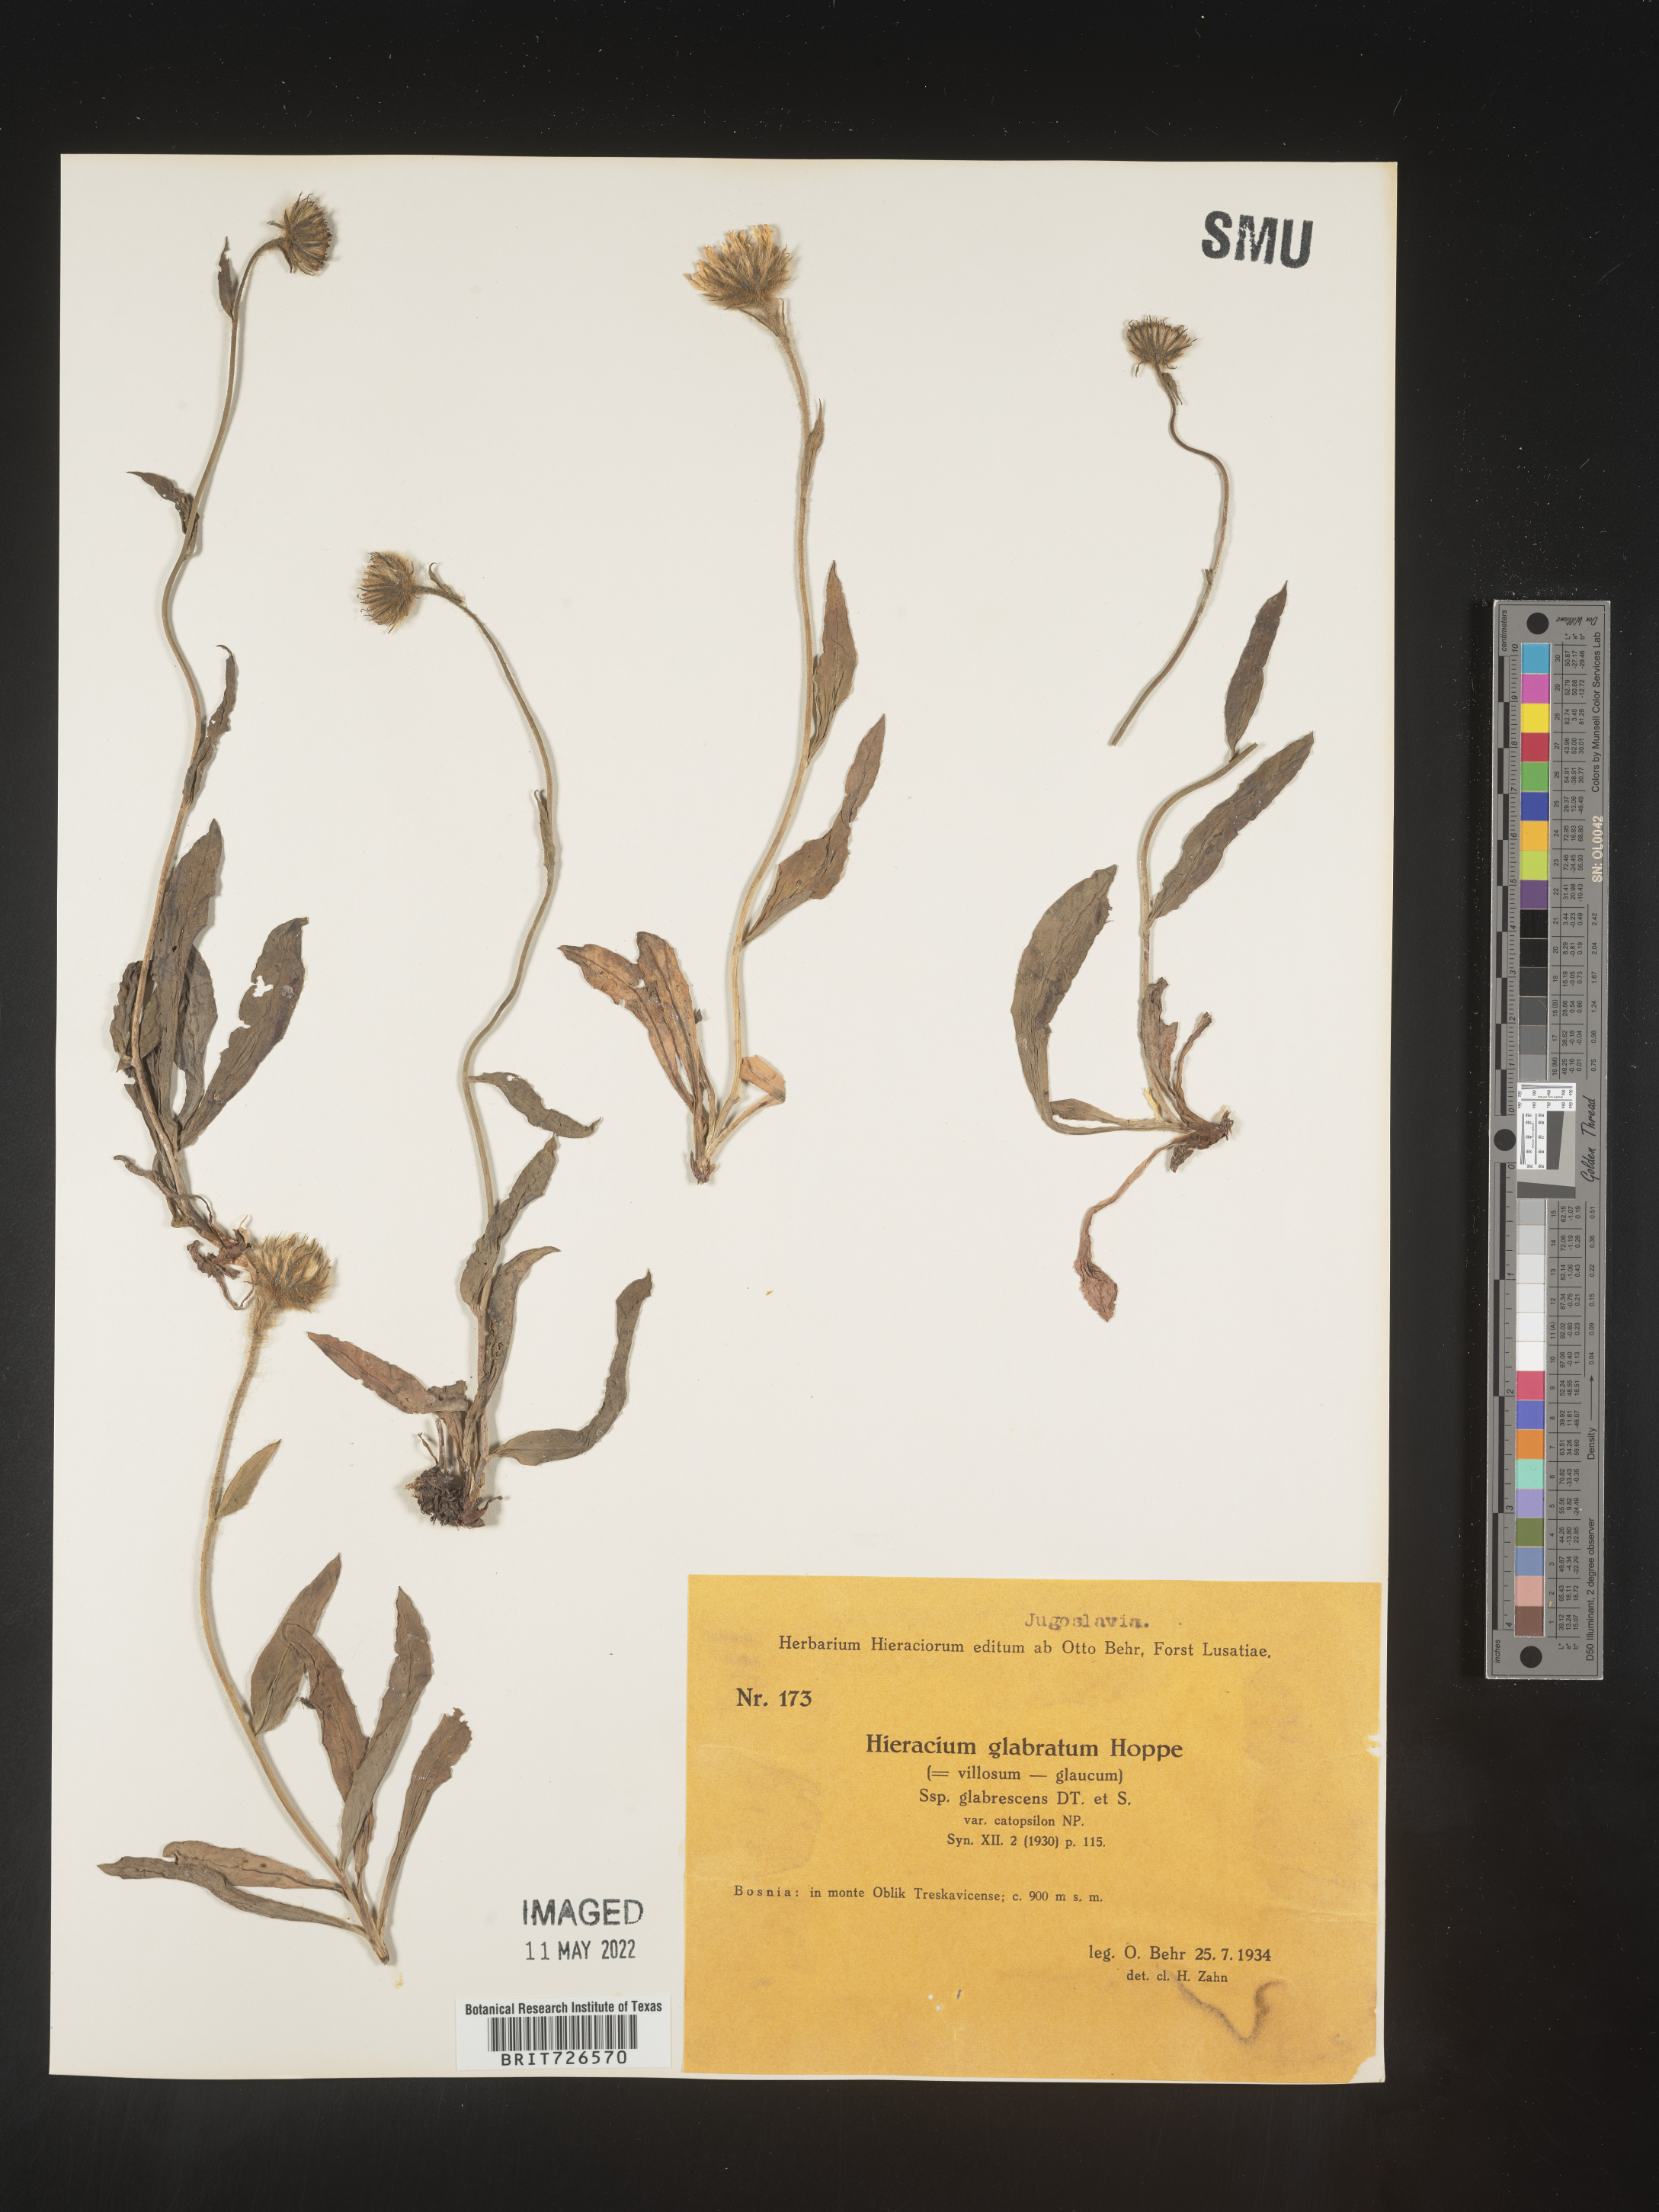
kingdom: Plantae
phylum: Tracheophyta
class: Magnoliopsida
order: Asterales
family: Asteraceae
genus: Hieracium
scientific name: Hieracium
